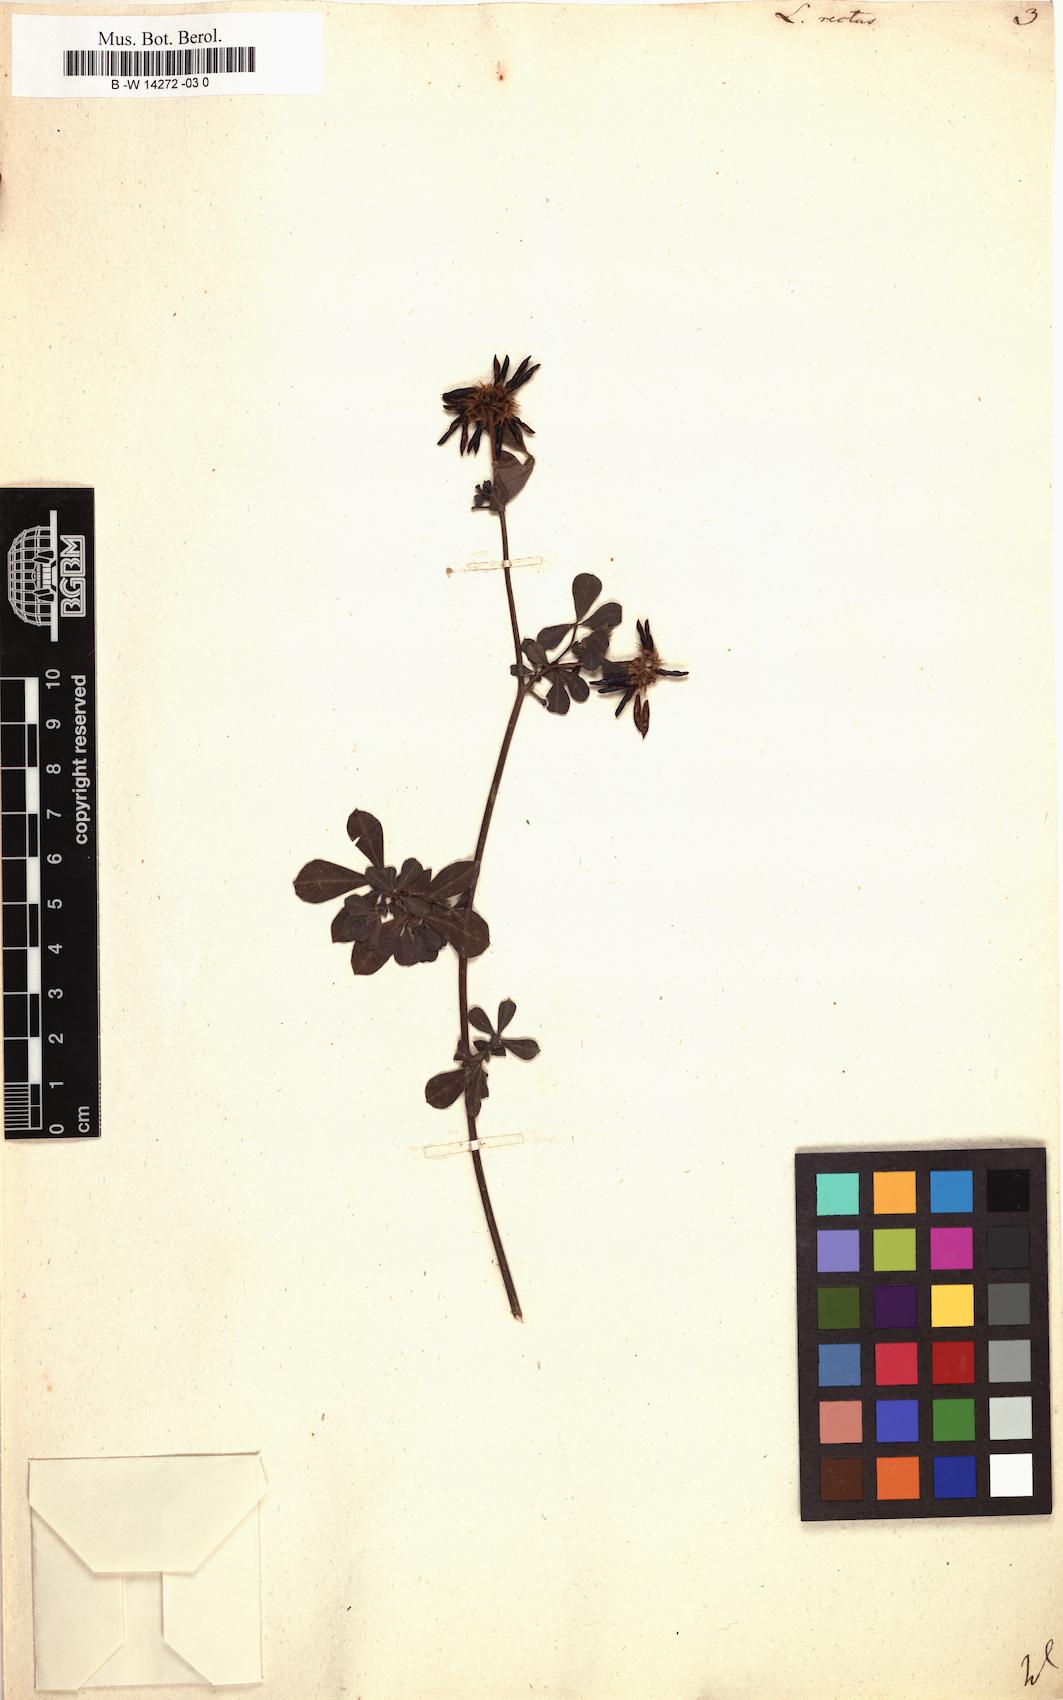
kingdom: Plantae
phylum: Tracheophyta
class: Magnoliopsida
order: Fabales
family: Fabaceae
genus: Lotus
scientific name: Lotus rectus
